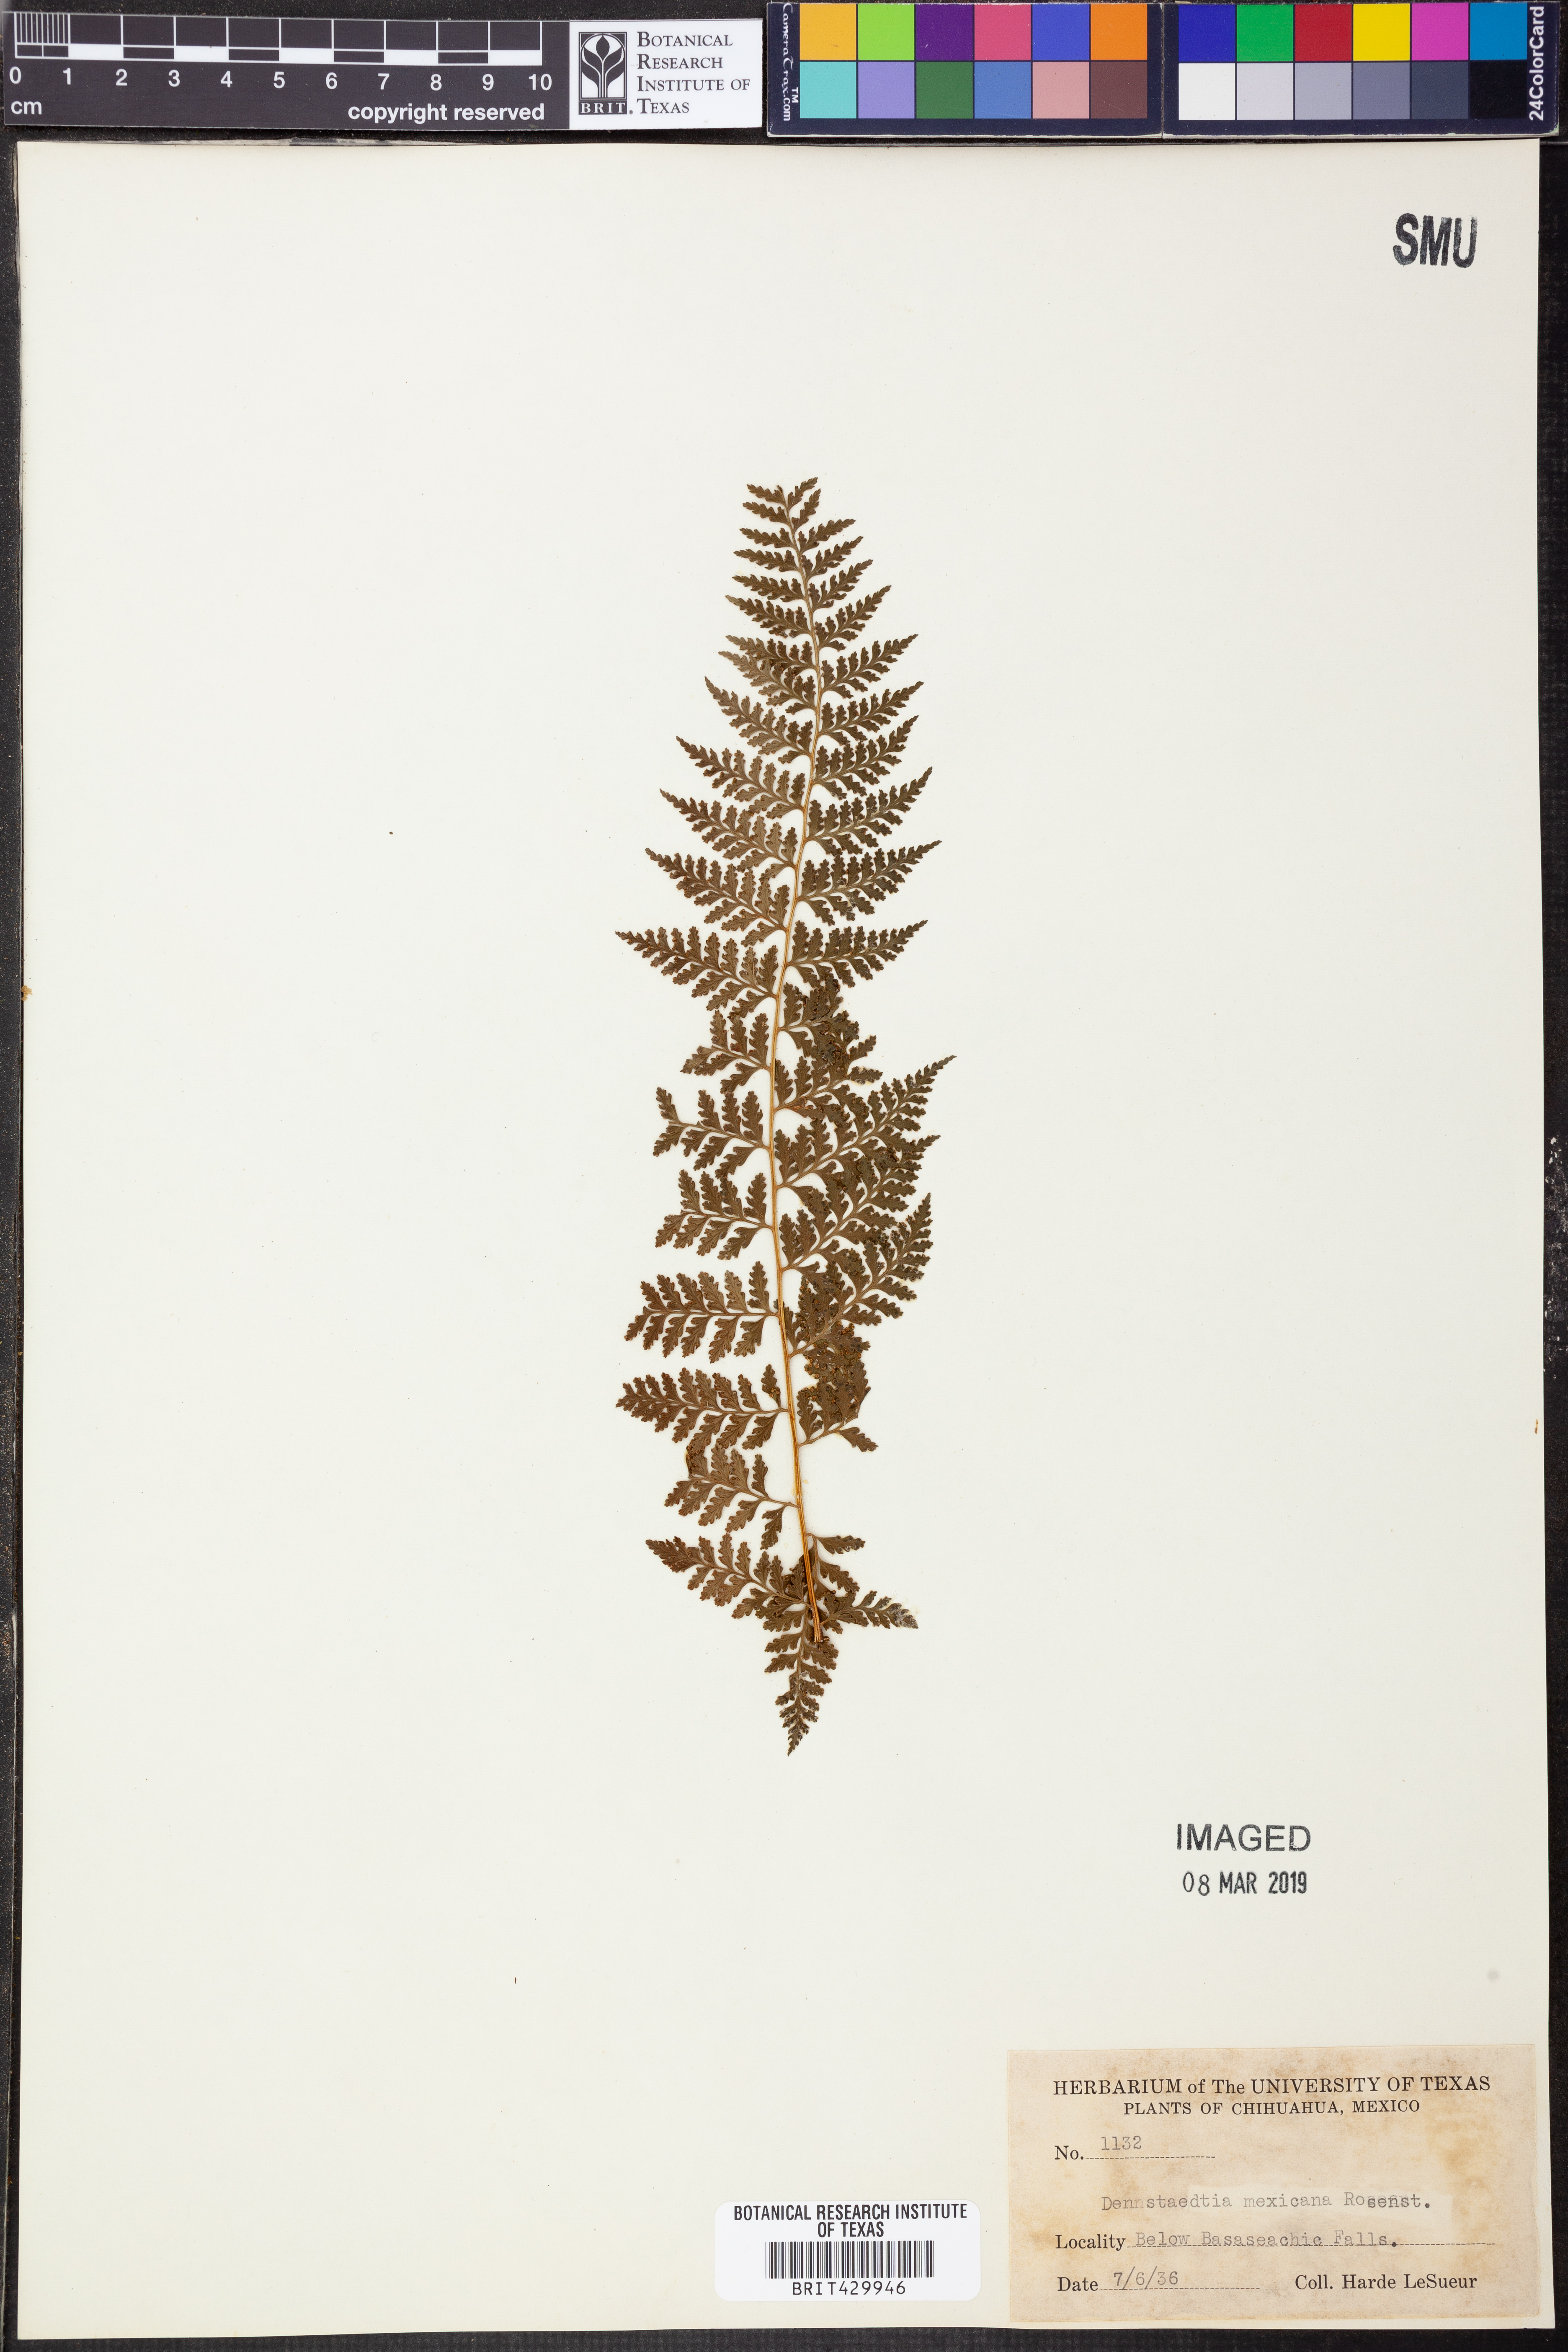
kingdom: Plantae
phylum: Tracheophyta
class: Polypodiopsida
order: Polypodiales
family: Dennstaedtiaceae
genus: Dennstaedtia
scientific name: Dennstaedtia distenta
